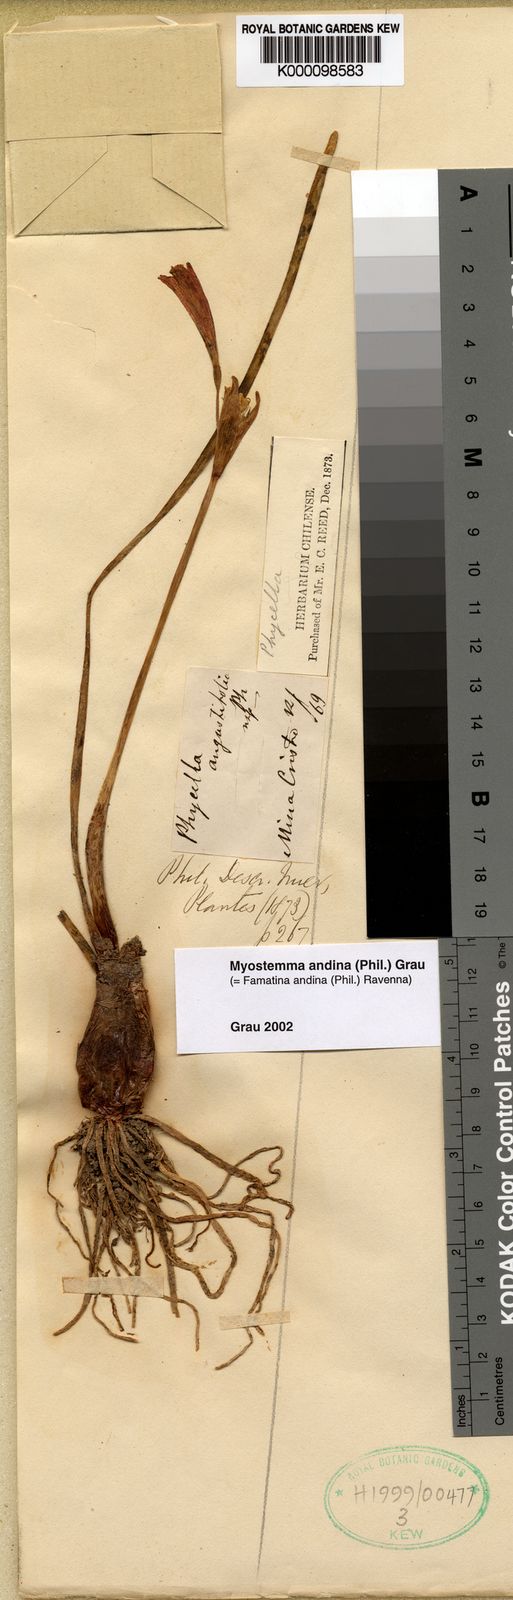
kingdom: Plantae
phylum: Tracheophyta
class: Liliopsida
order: Asparagales
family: Amaryllidaceae
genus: Zephyranthes
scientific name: Zephyranthes
